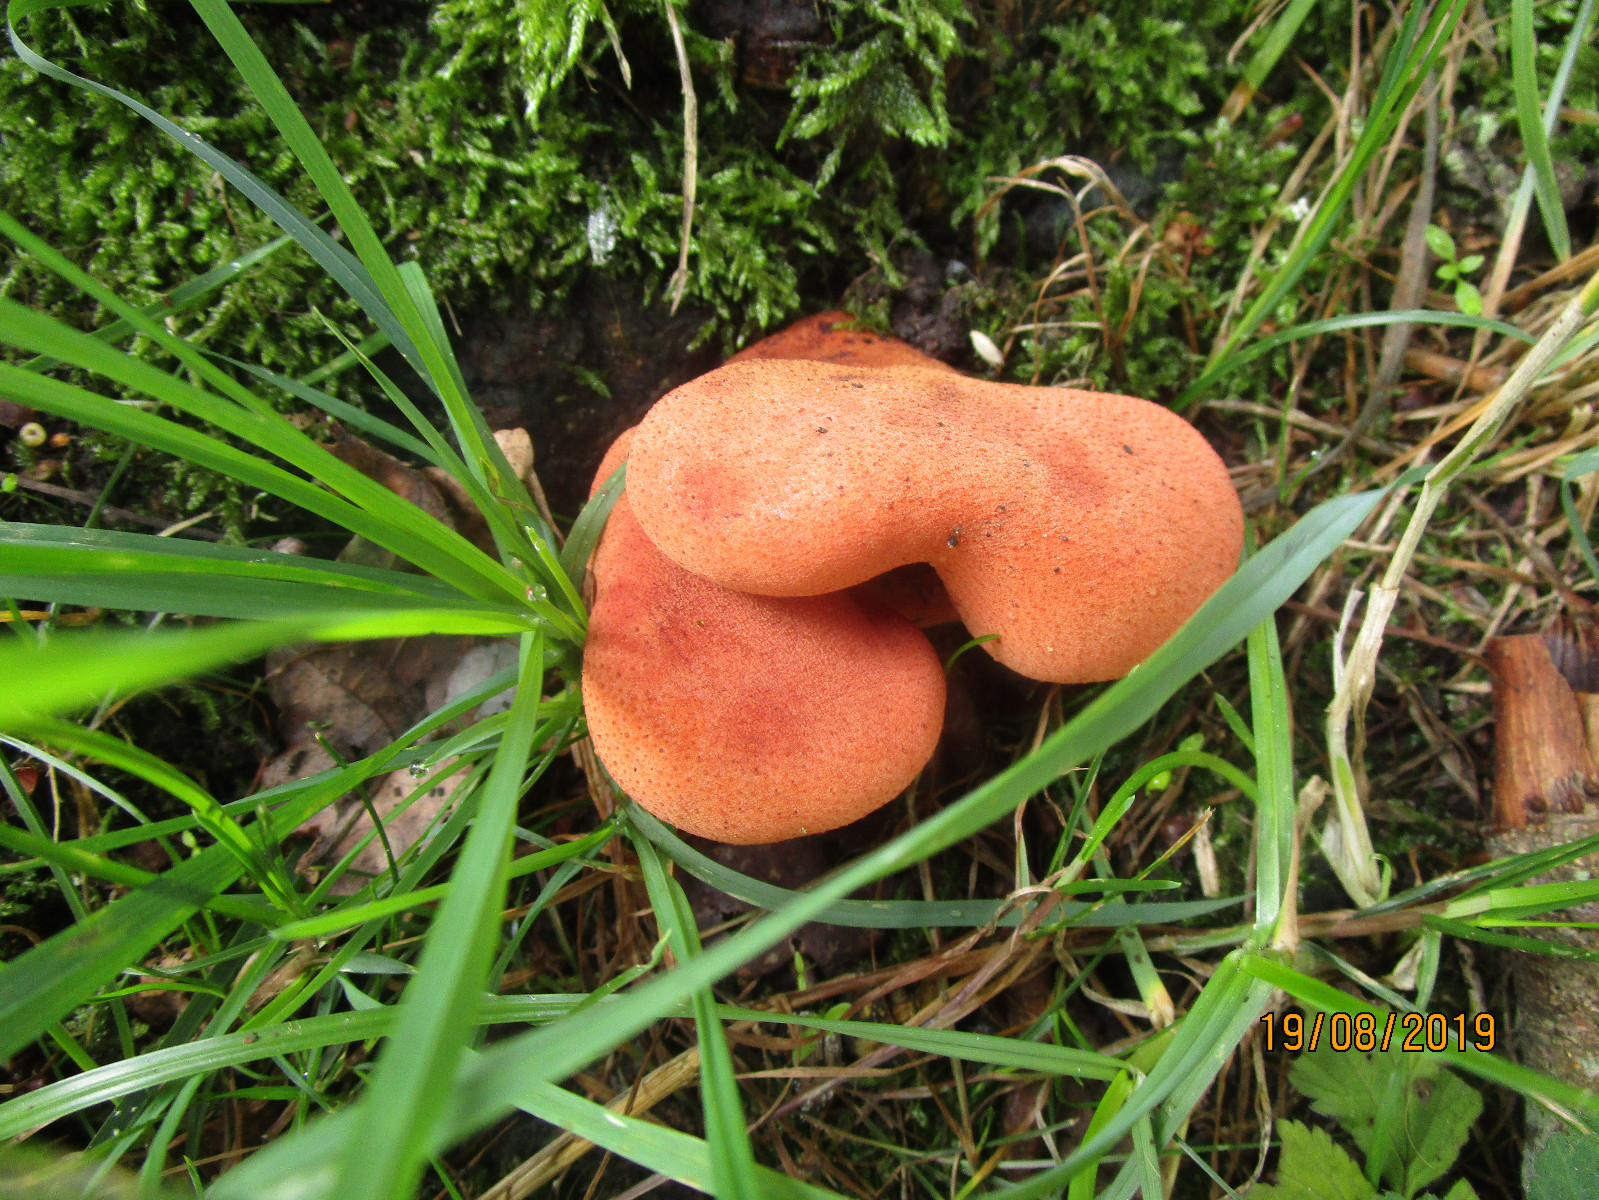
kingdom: Fungi
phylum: Basidiomycota
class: Agaricomycetes
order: Agaricales
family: Fistulinaceae
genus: Fistulina
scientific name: Fistulina hepatica
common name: oksetunge
